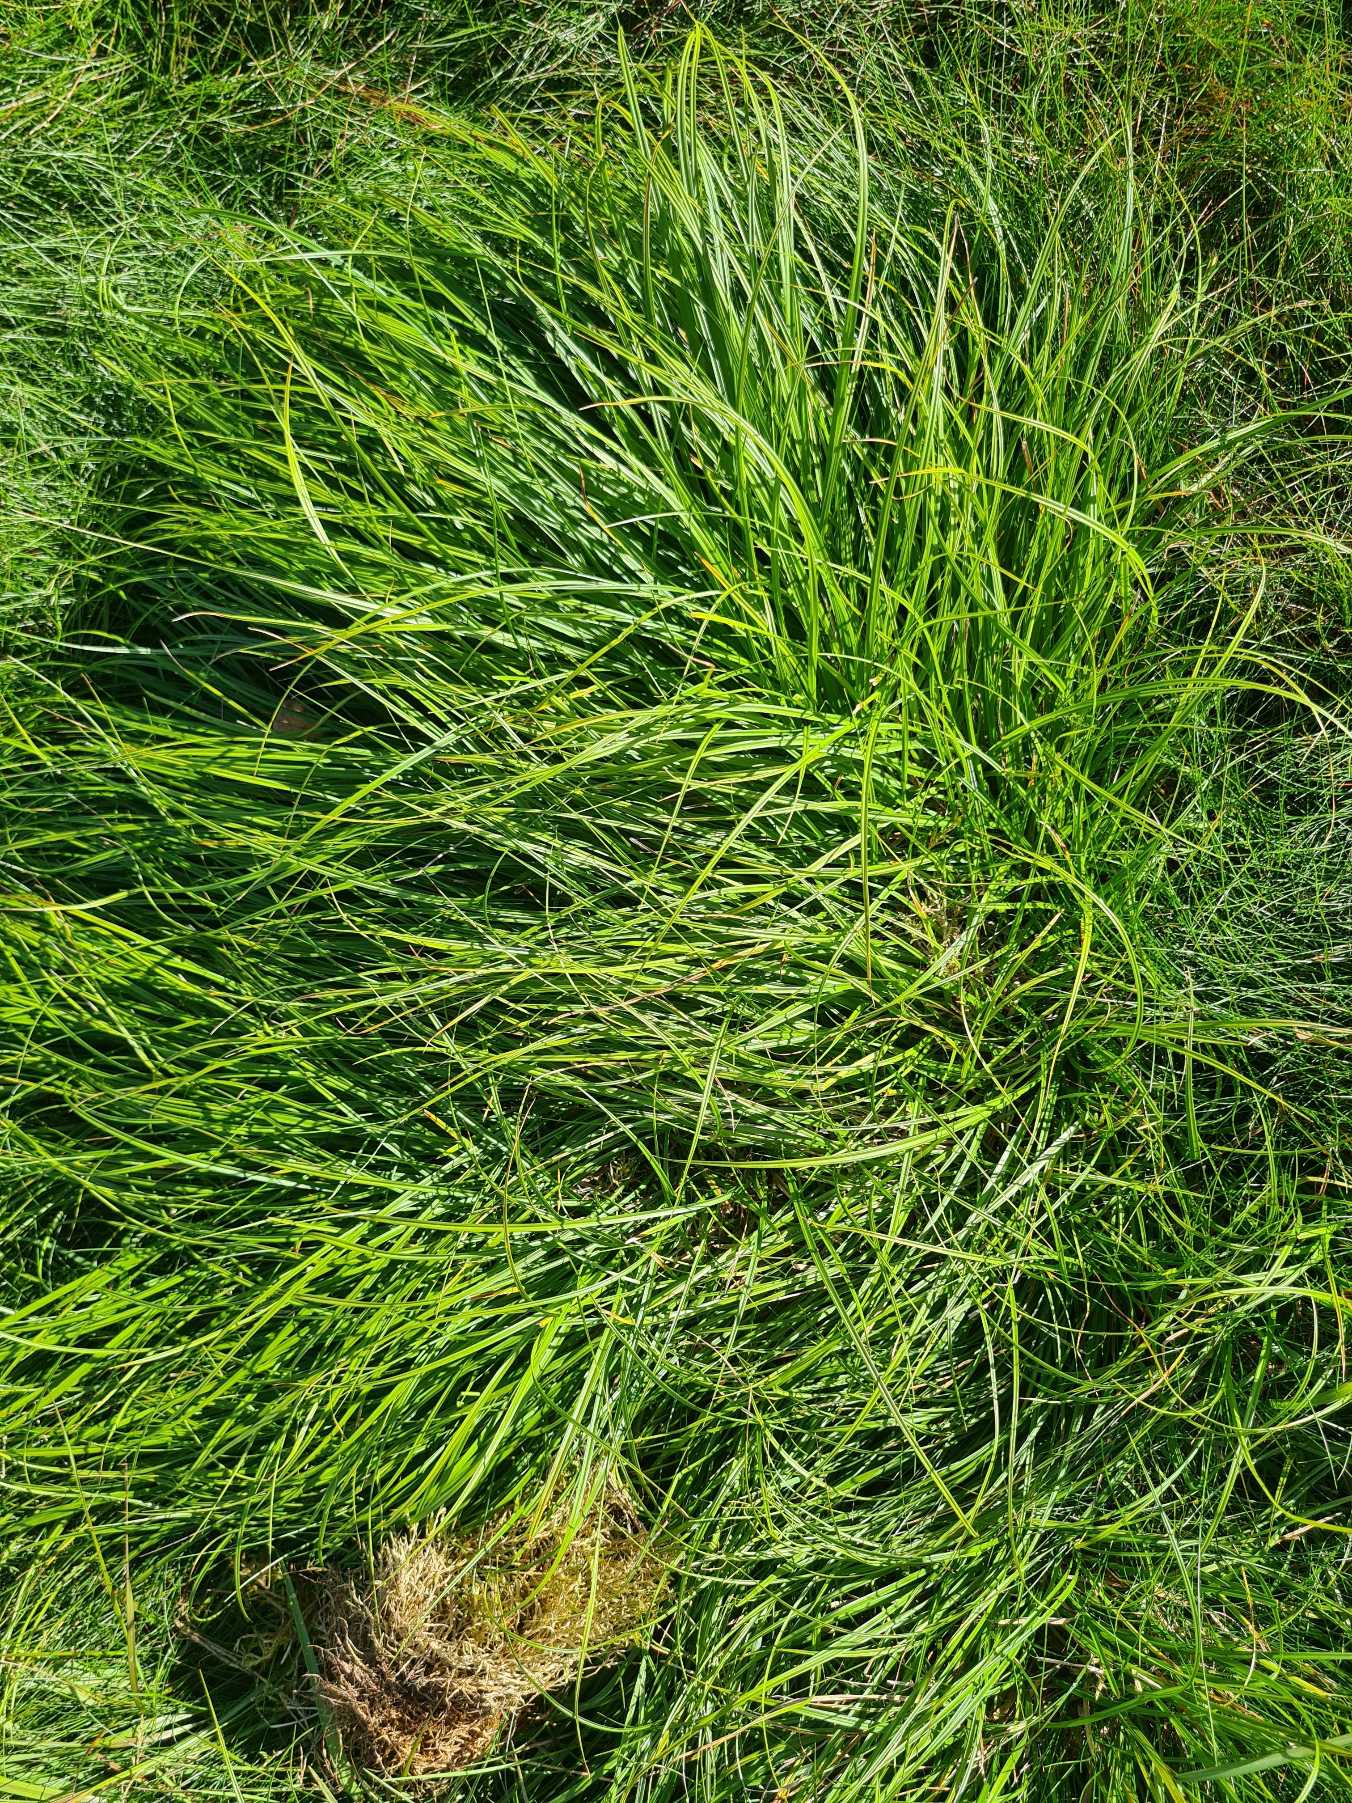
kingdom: Plantae
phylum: Tracheophyta
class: Liliopsida
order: Poales
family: Cyperaceae
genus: Carex
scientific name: Carex pilulifera
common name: Pille-star
